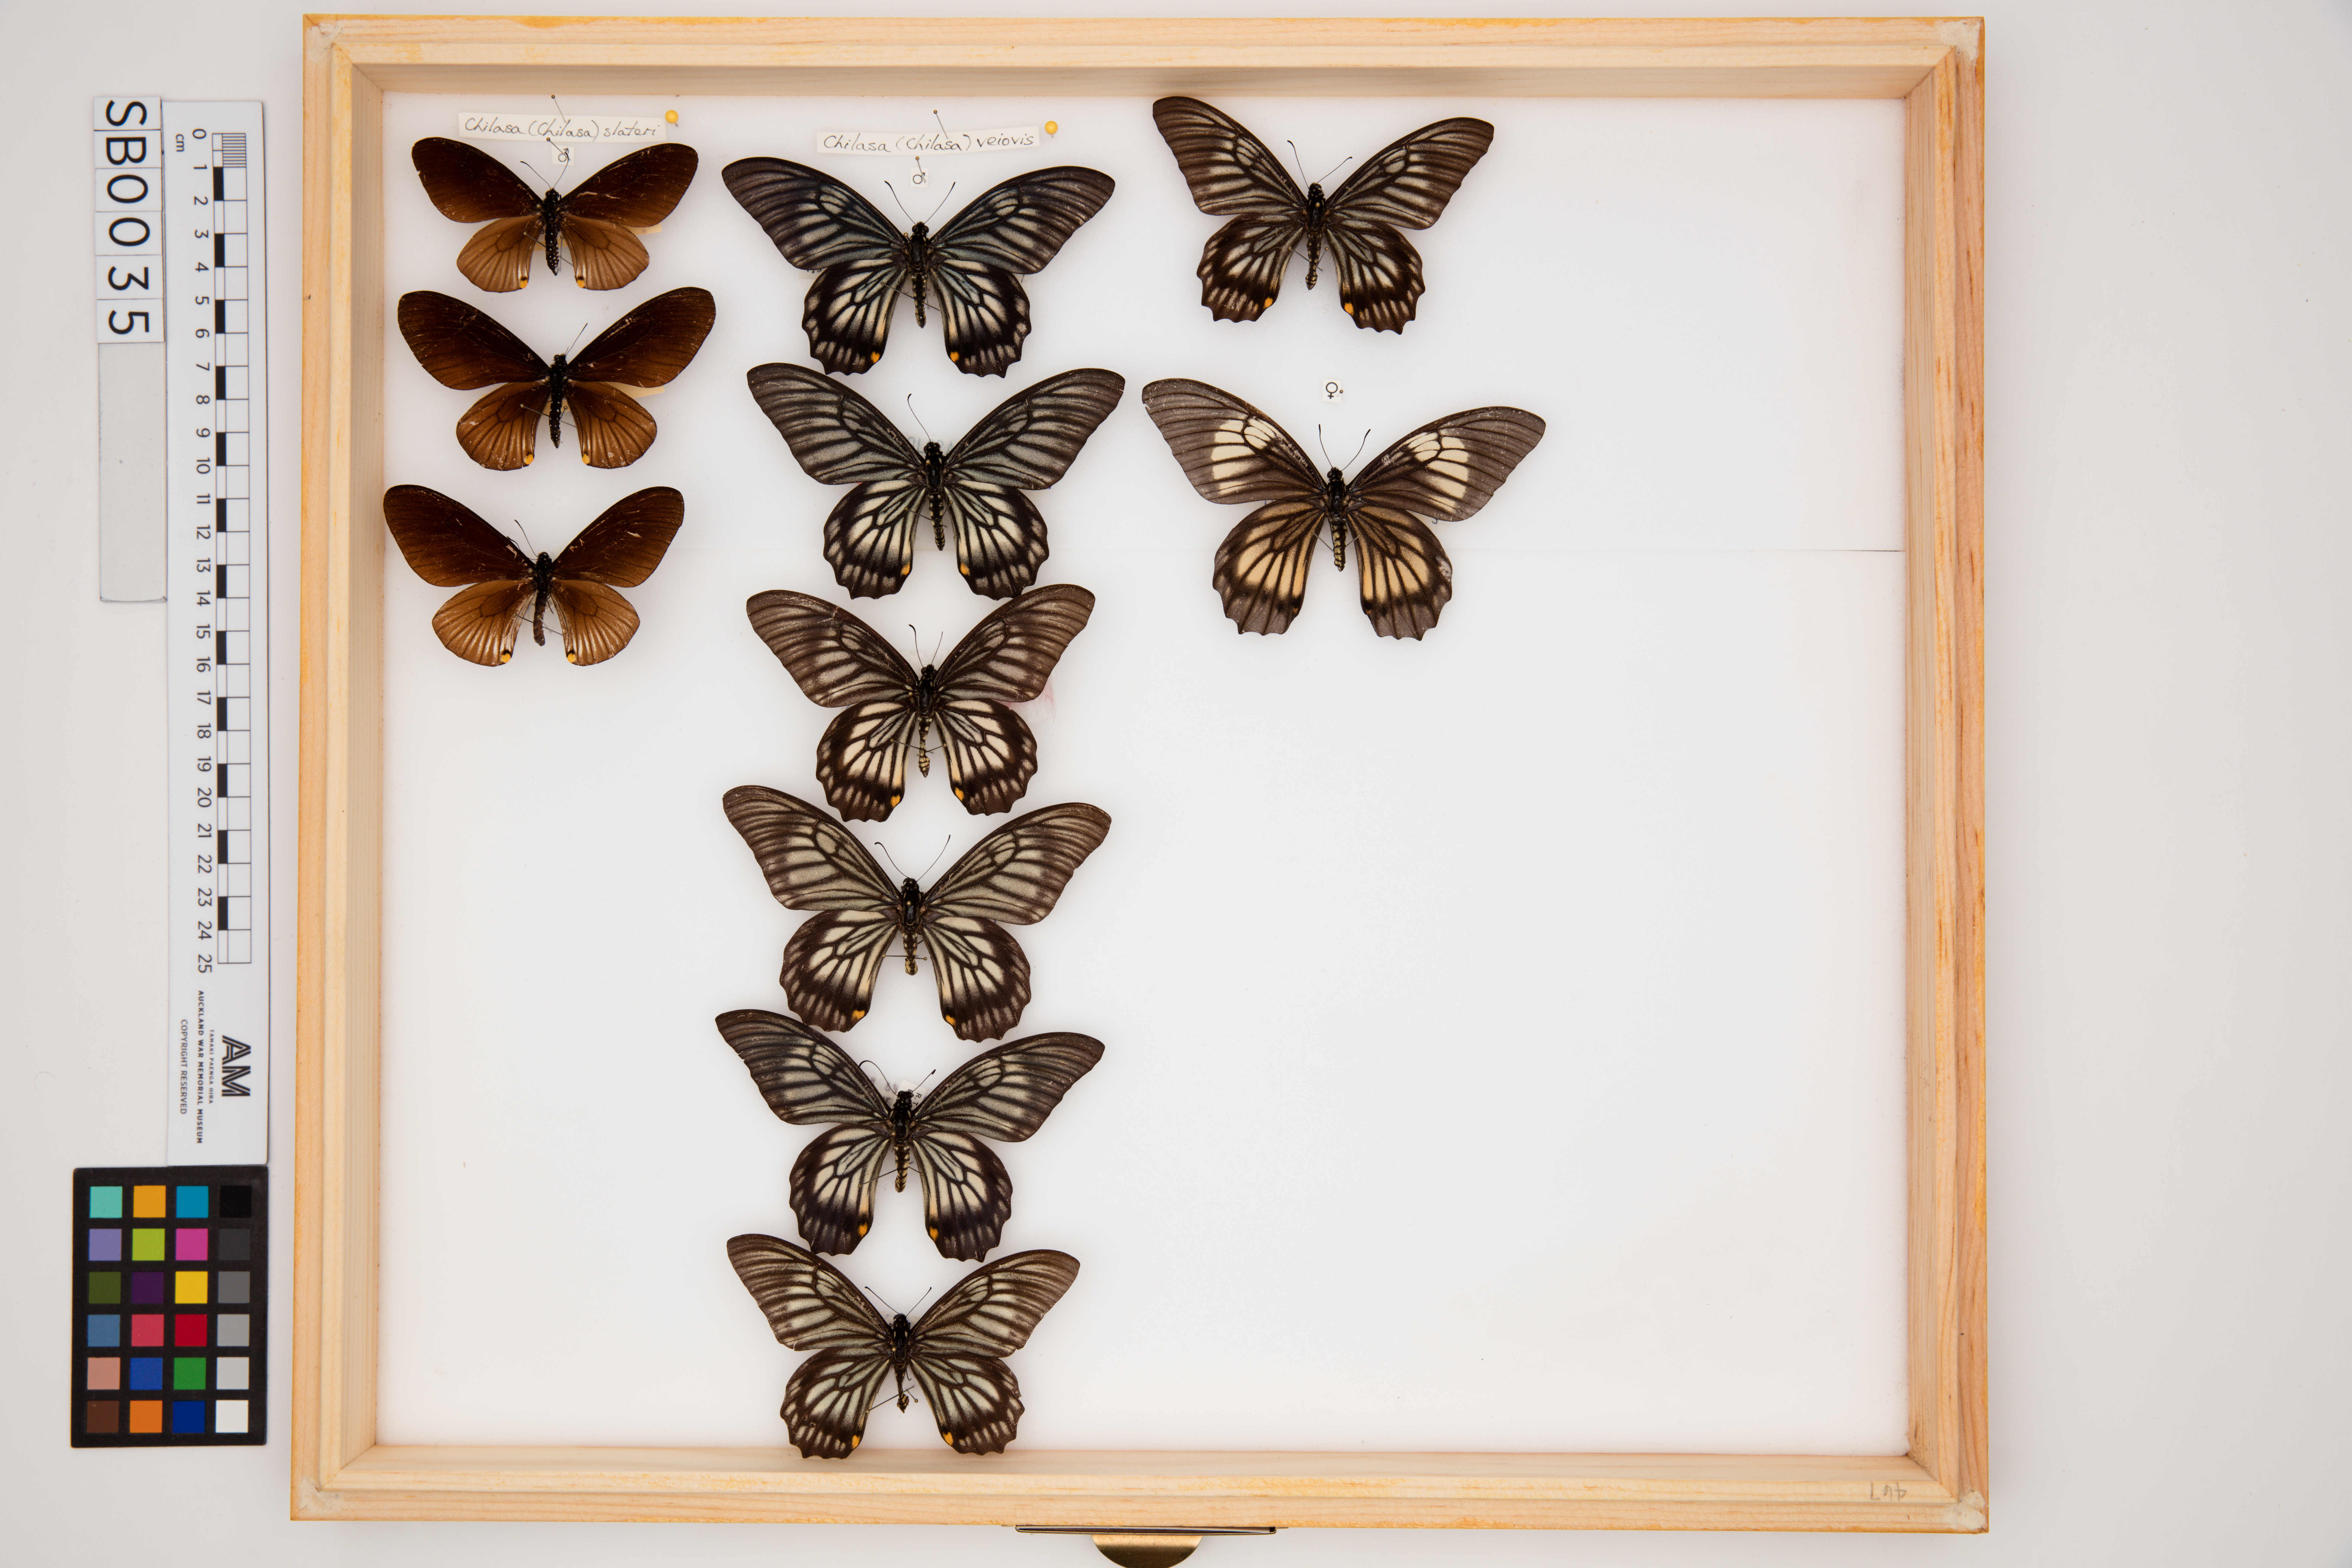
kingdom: Animalia
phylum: Arthropoda
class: Insecta
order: Lepidoptera
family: Papilionidae
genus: Chilasa
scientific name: Chilasa veiovis
